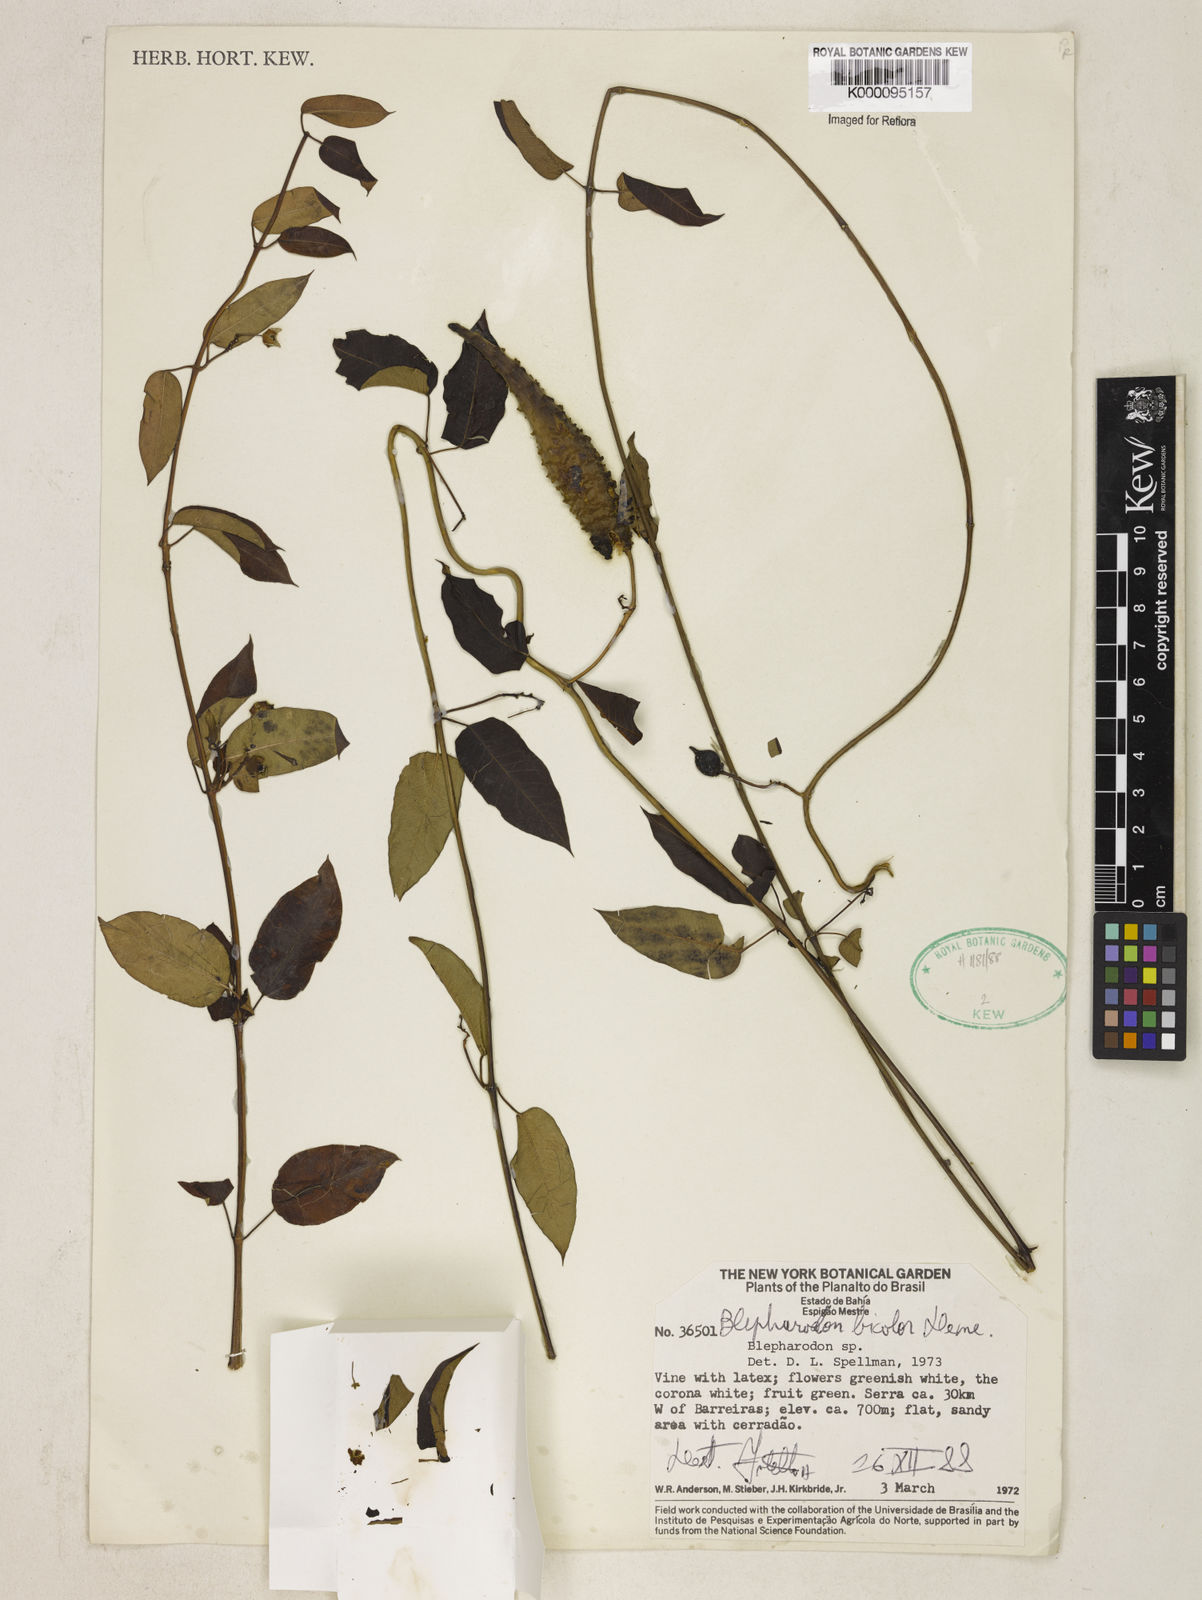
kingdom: Plantae
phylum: Tracheophyta
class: Magnoliopsida
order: Gentianales
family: Apocynaceae
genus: Blepharodon
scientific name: Blepharodon bicolor
